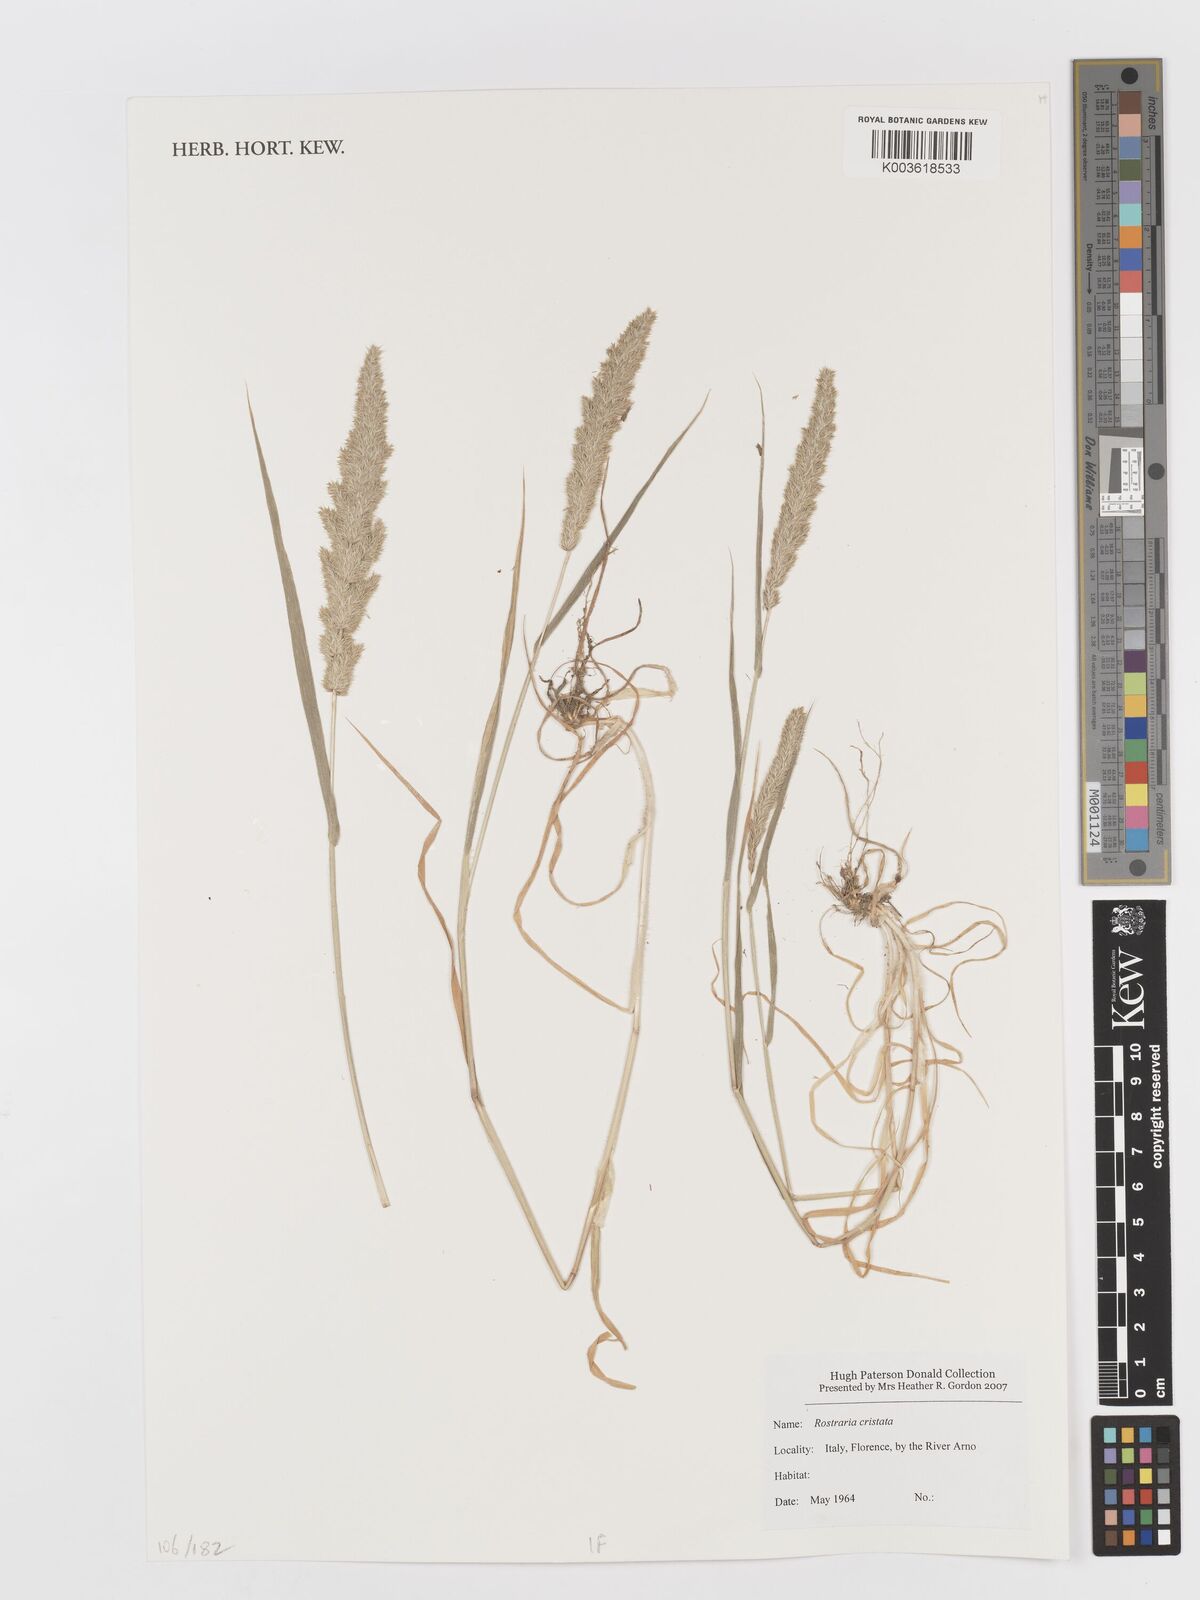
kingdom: Plantae
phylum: Tracheophyta
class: Liliopsida
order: Poales
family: Poaceae
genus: Rostraria
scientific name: Rostraria cristata
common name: Mediterranean hair-grass
